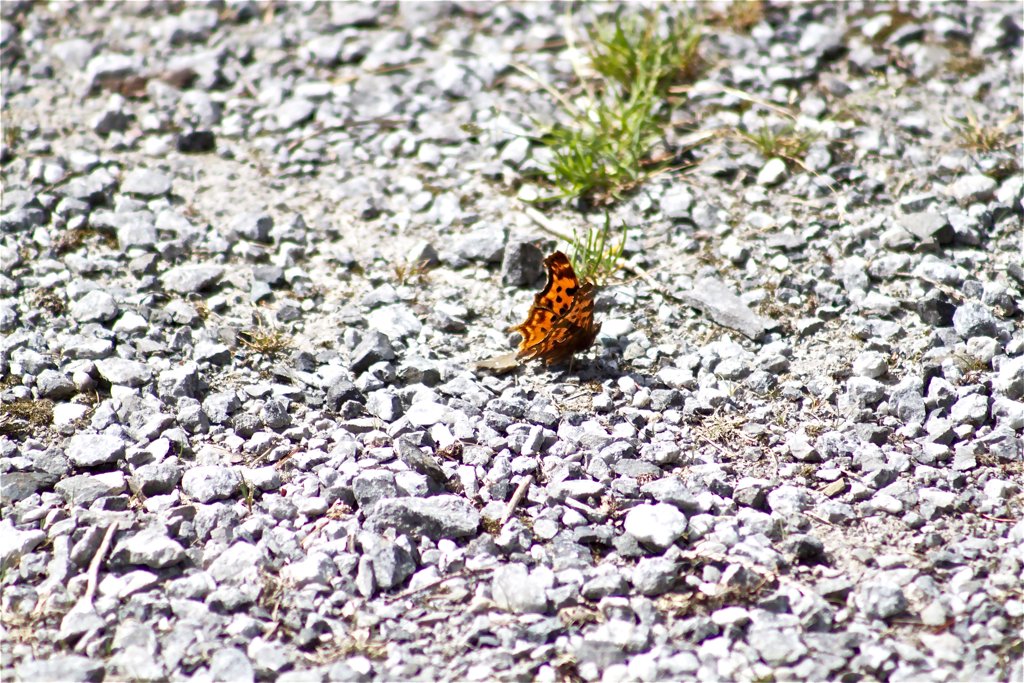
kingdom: Animalia
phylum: Arthropoda
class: Insecta
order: Lepidoptera
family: Nymphalidae
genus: Polygonia
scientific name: Polygonia satyrus
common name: Satyr Comma
